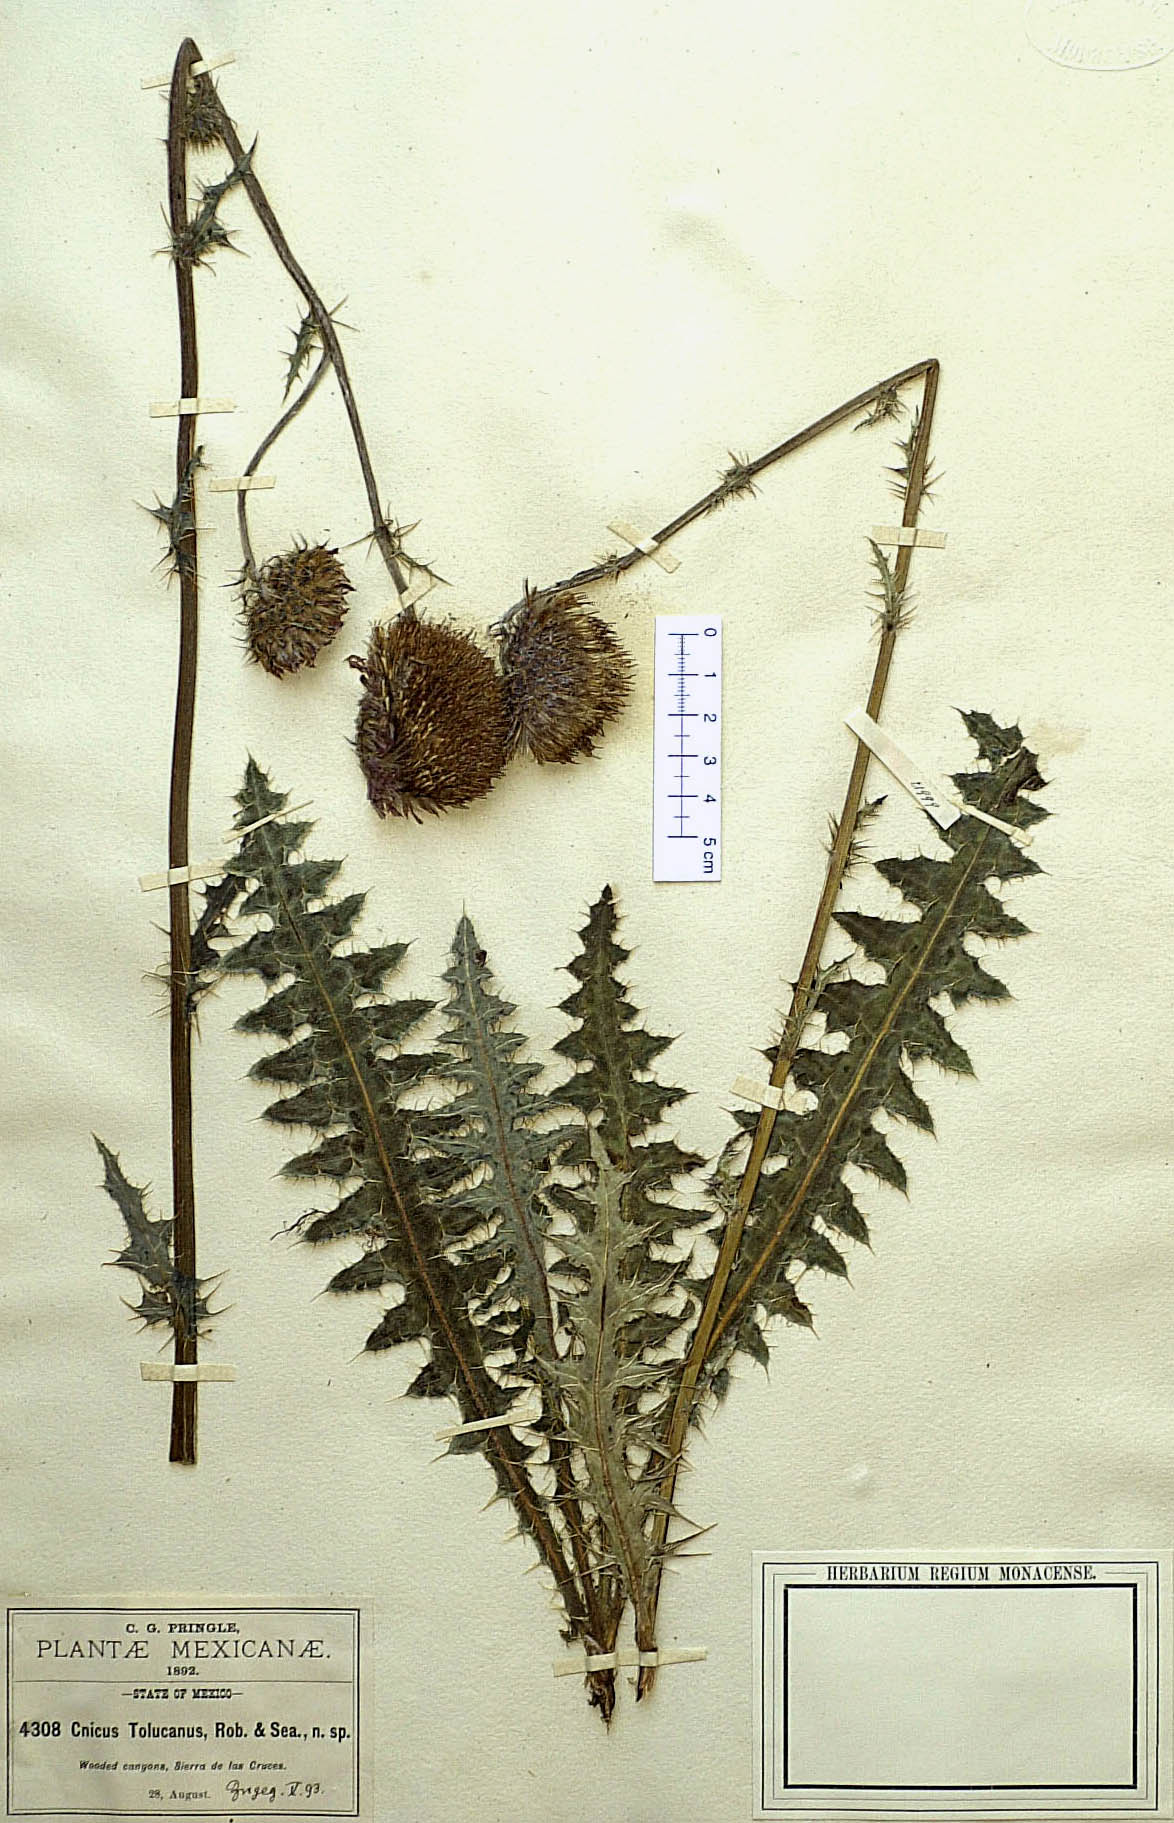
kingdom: Plantae
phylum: Tracheophyta
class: Magnoliopsida
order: Asterales
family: Asteraceae
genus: Cirsium
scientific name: Cirsium tolucanum
